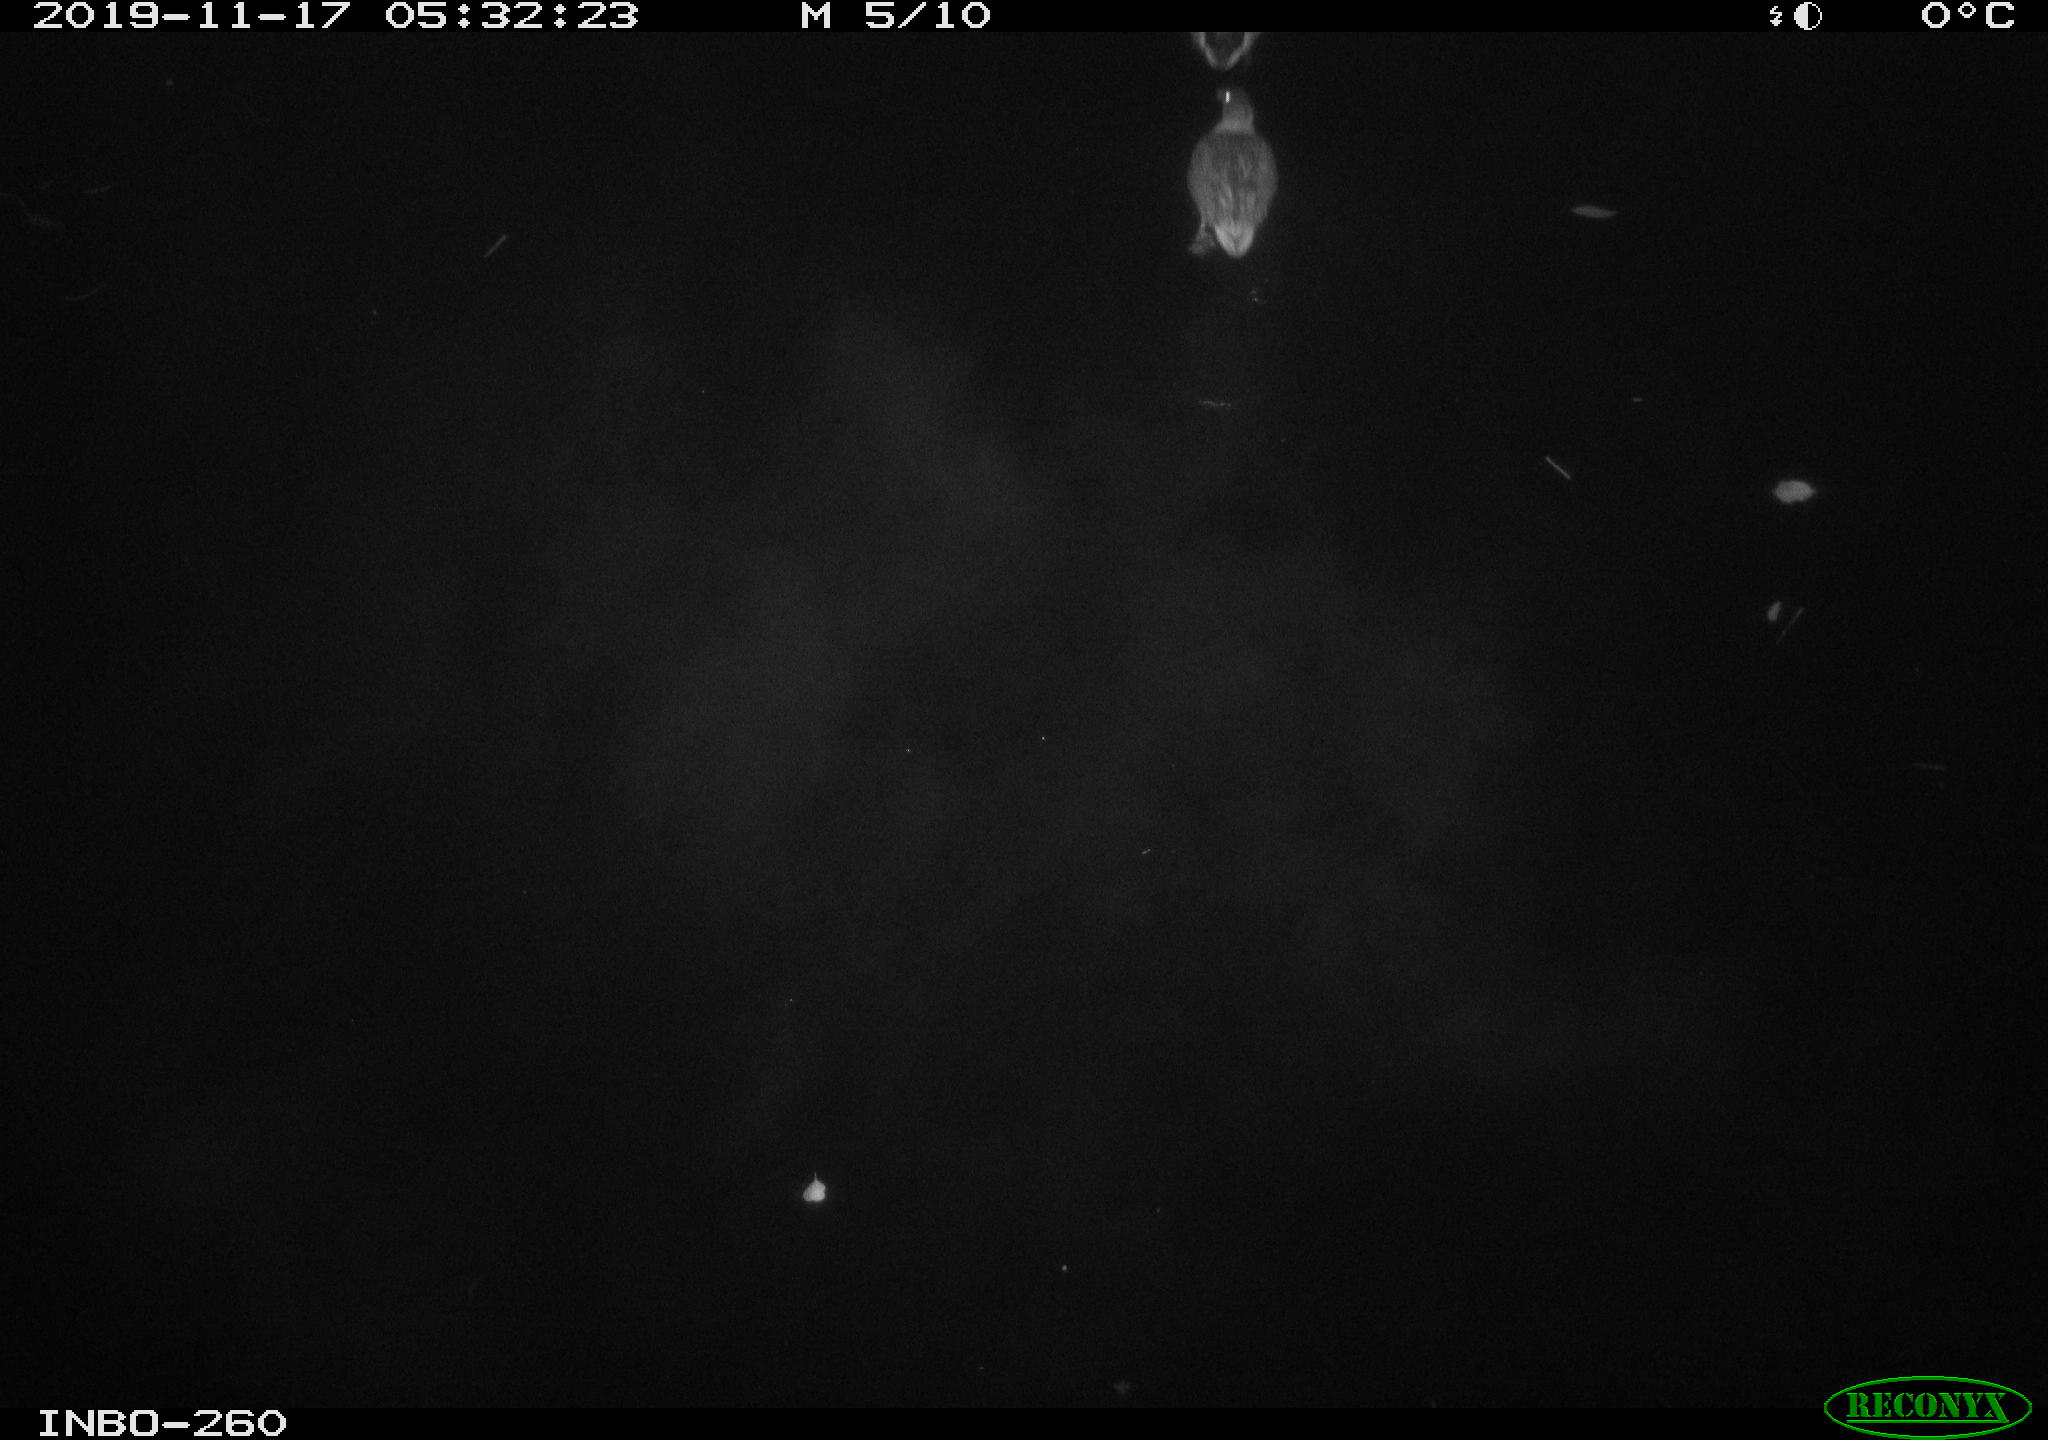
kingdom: Animalia
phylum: Chordata
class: Aves
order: Anseriformes
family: Anatidae
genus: Anas
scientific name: Anas platyrhynchos
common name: Mallard
